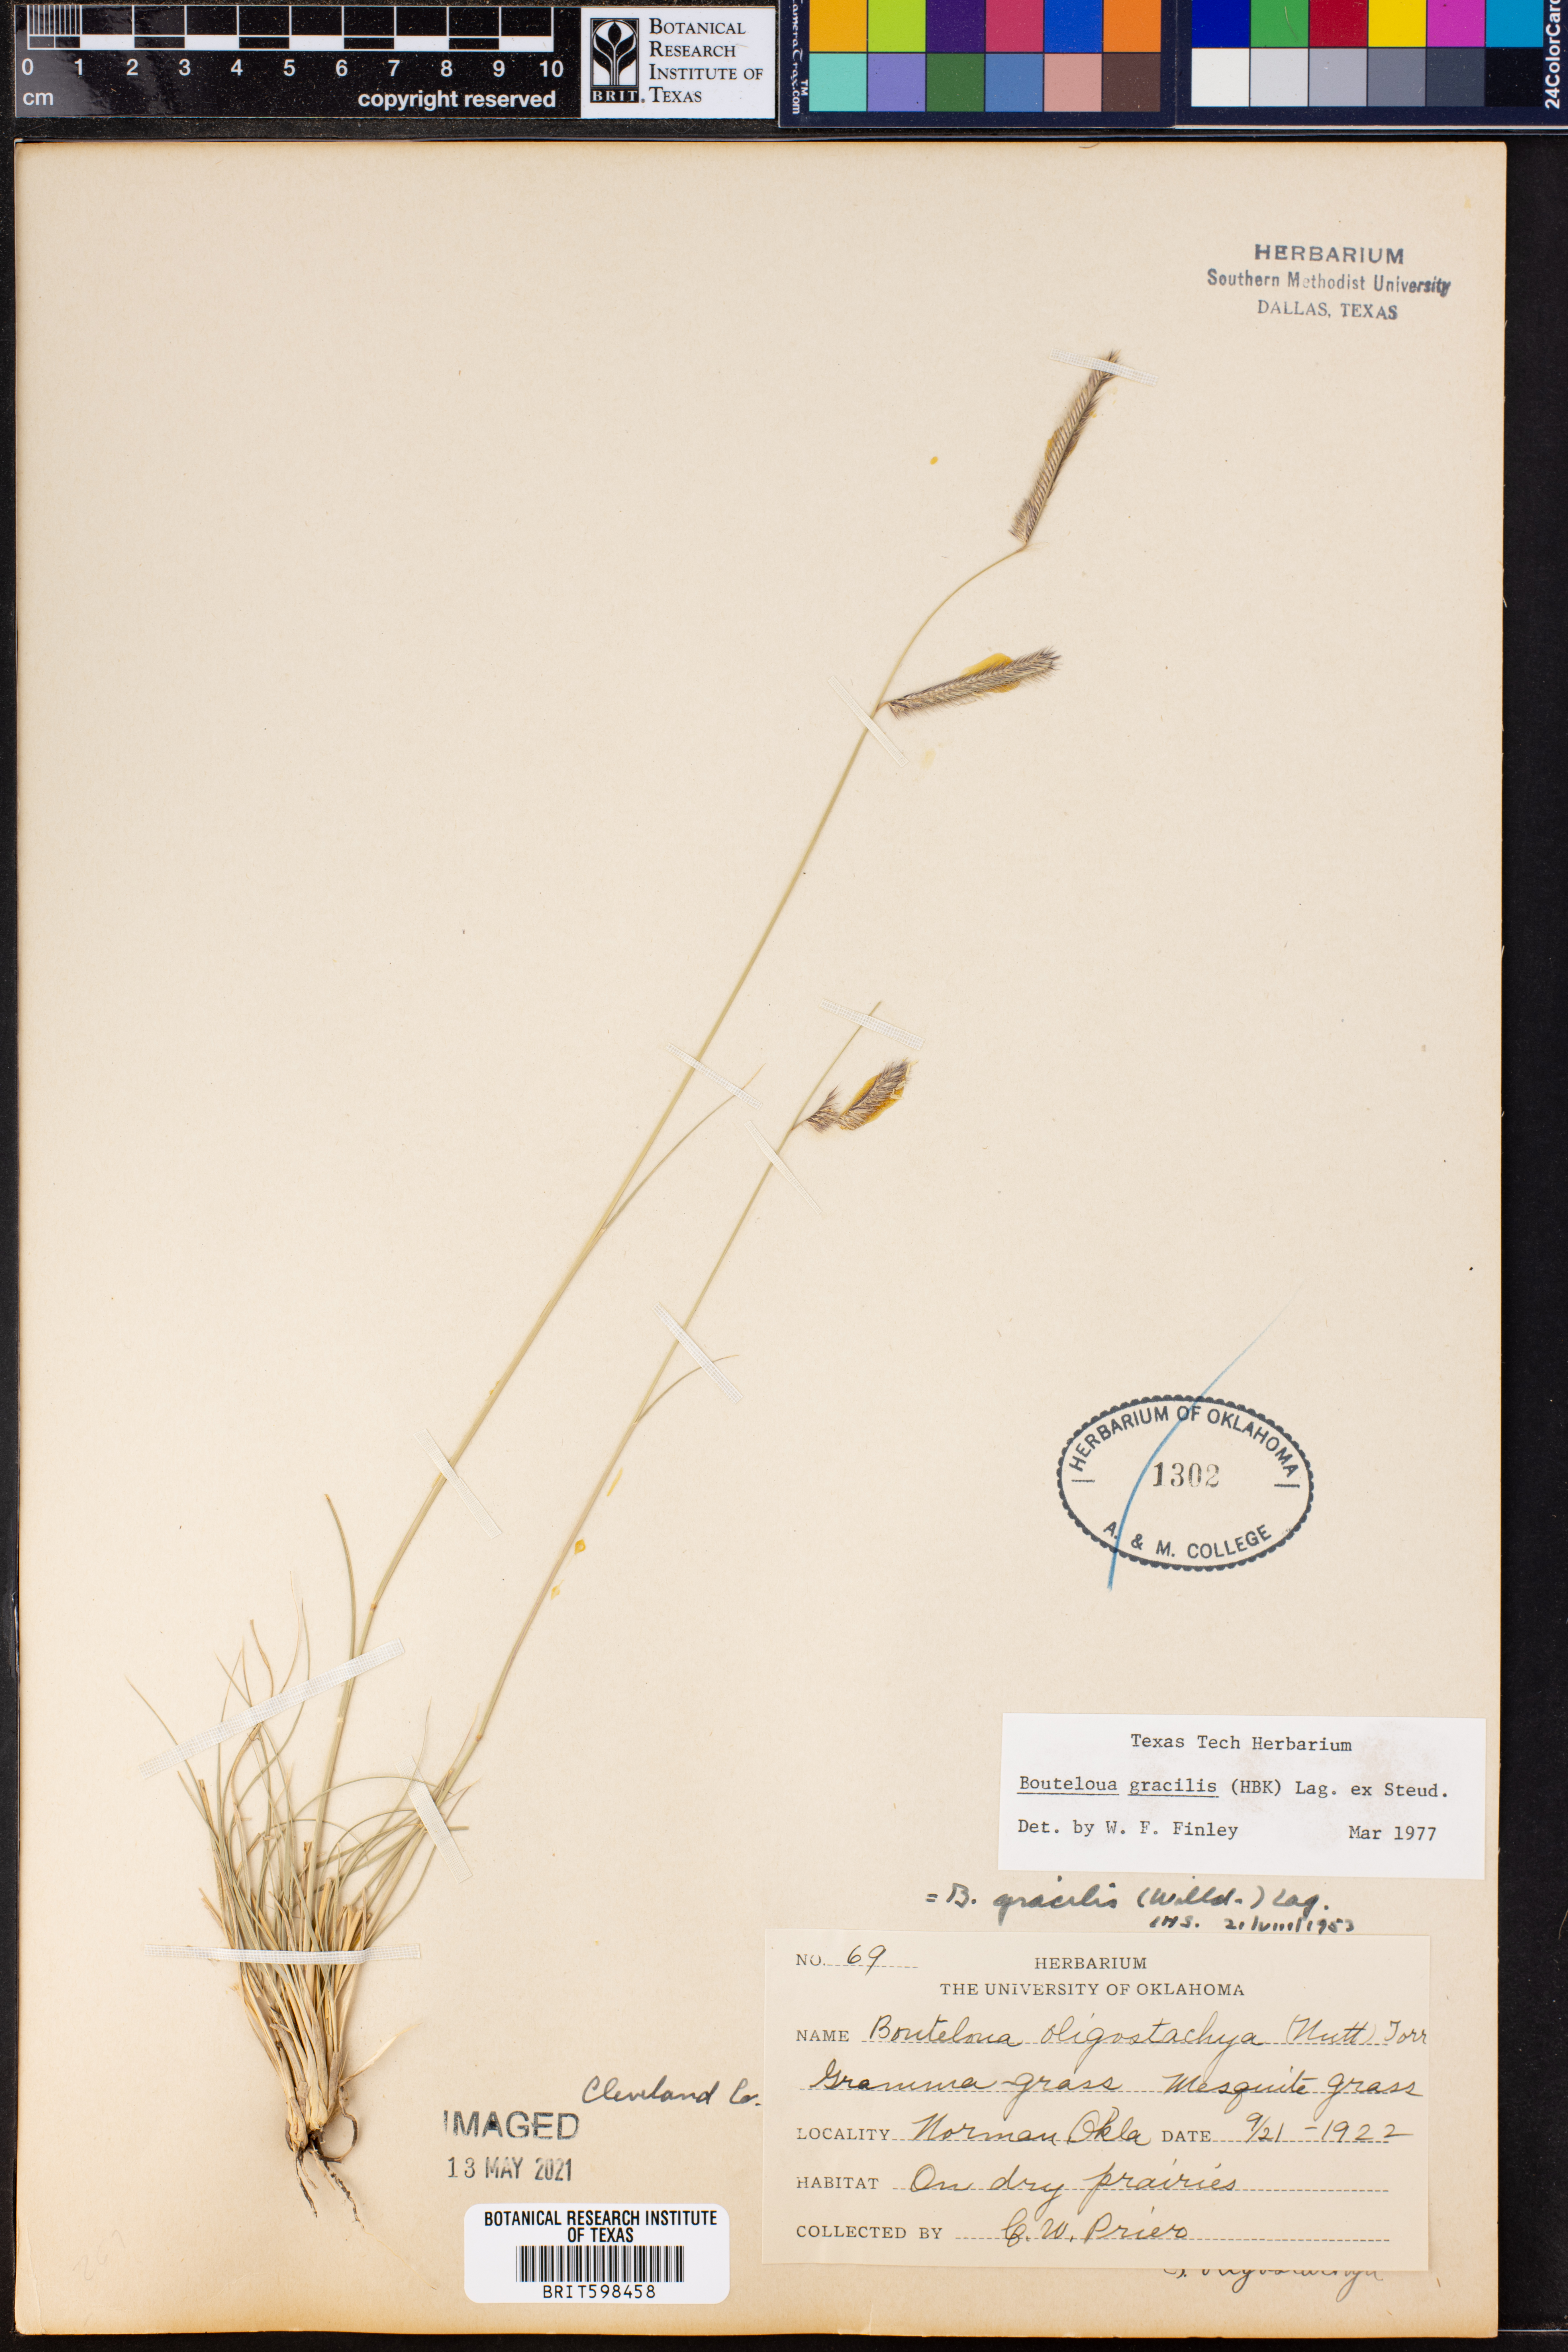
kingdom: Plantae
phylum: Tracheophyta
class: Liliopsida
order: Poales
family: Poaceae
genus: Bouteloua
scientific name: Bouteloua gracilis
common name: Blue grama
